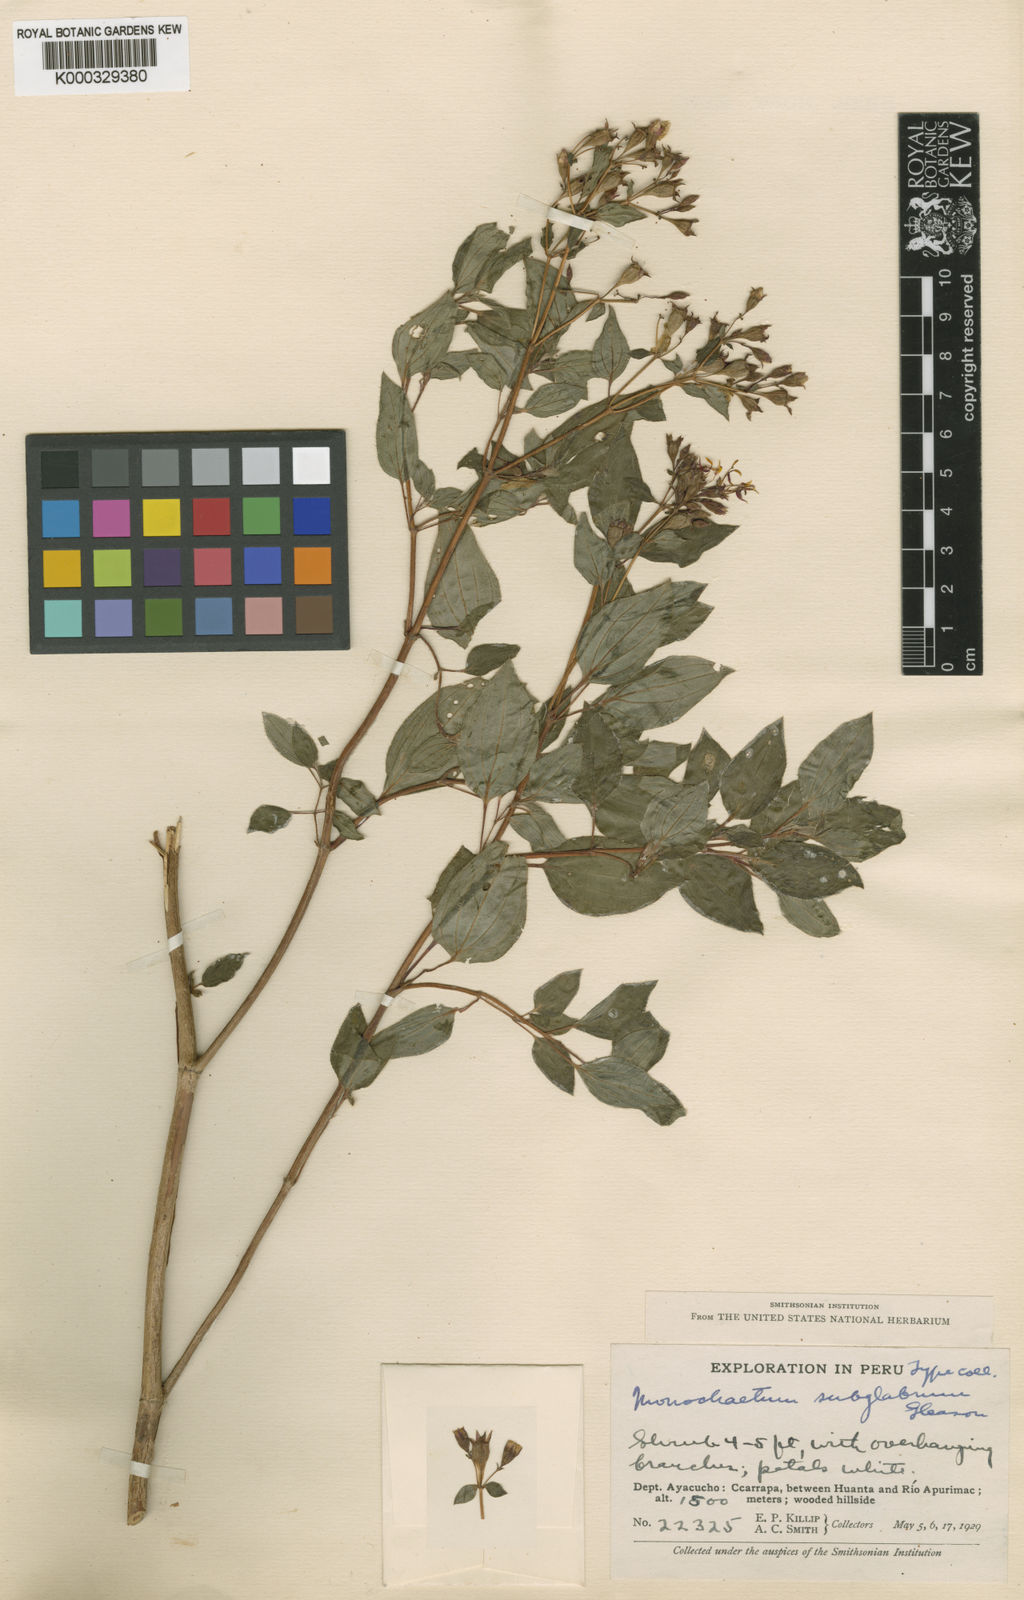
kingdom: Plantae
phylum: Tracheophyta
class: Magnoliopsida
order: Myrtales
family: Melastomataceae
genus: Monochaetum
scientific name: Monochaetum subglabrum
